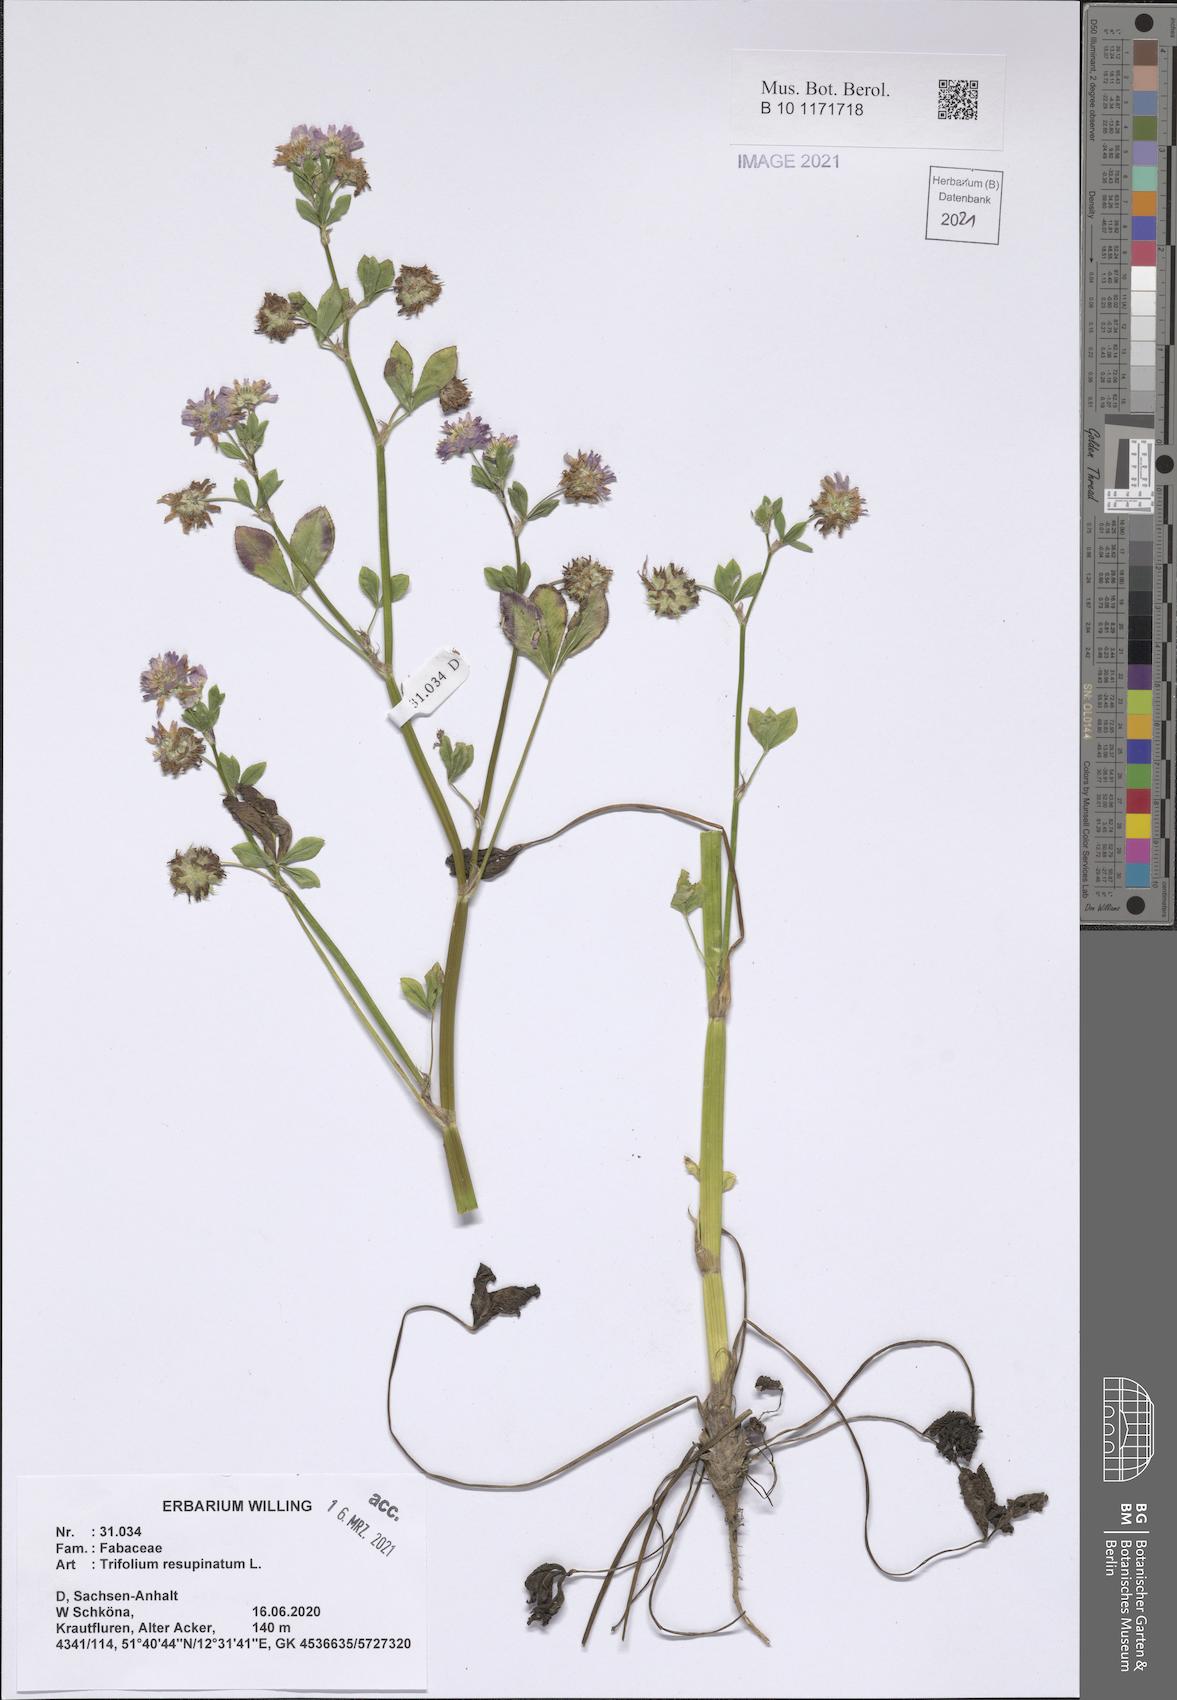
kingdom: Plantae
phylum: Tracheophyta
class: Magnoliopsida
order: Fabales
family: Fabaceae
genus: Trifolium
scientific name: Trifolium resupinatum
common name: Reversed clover
